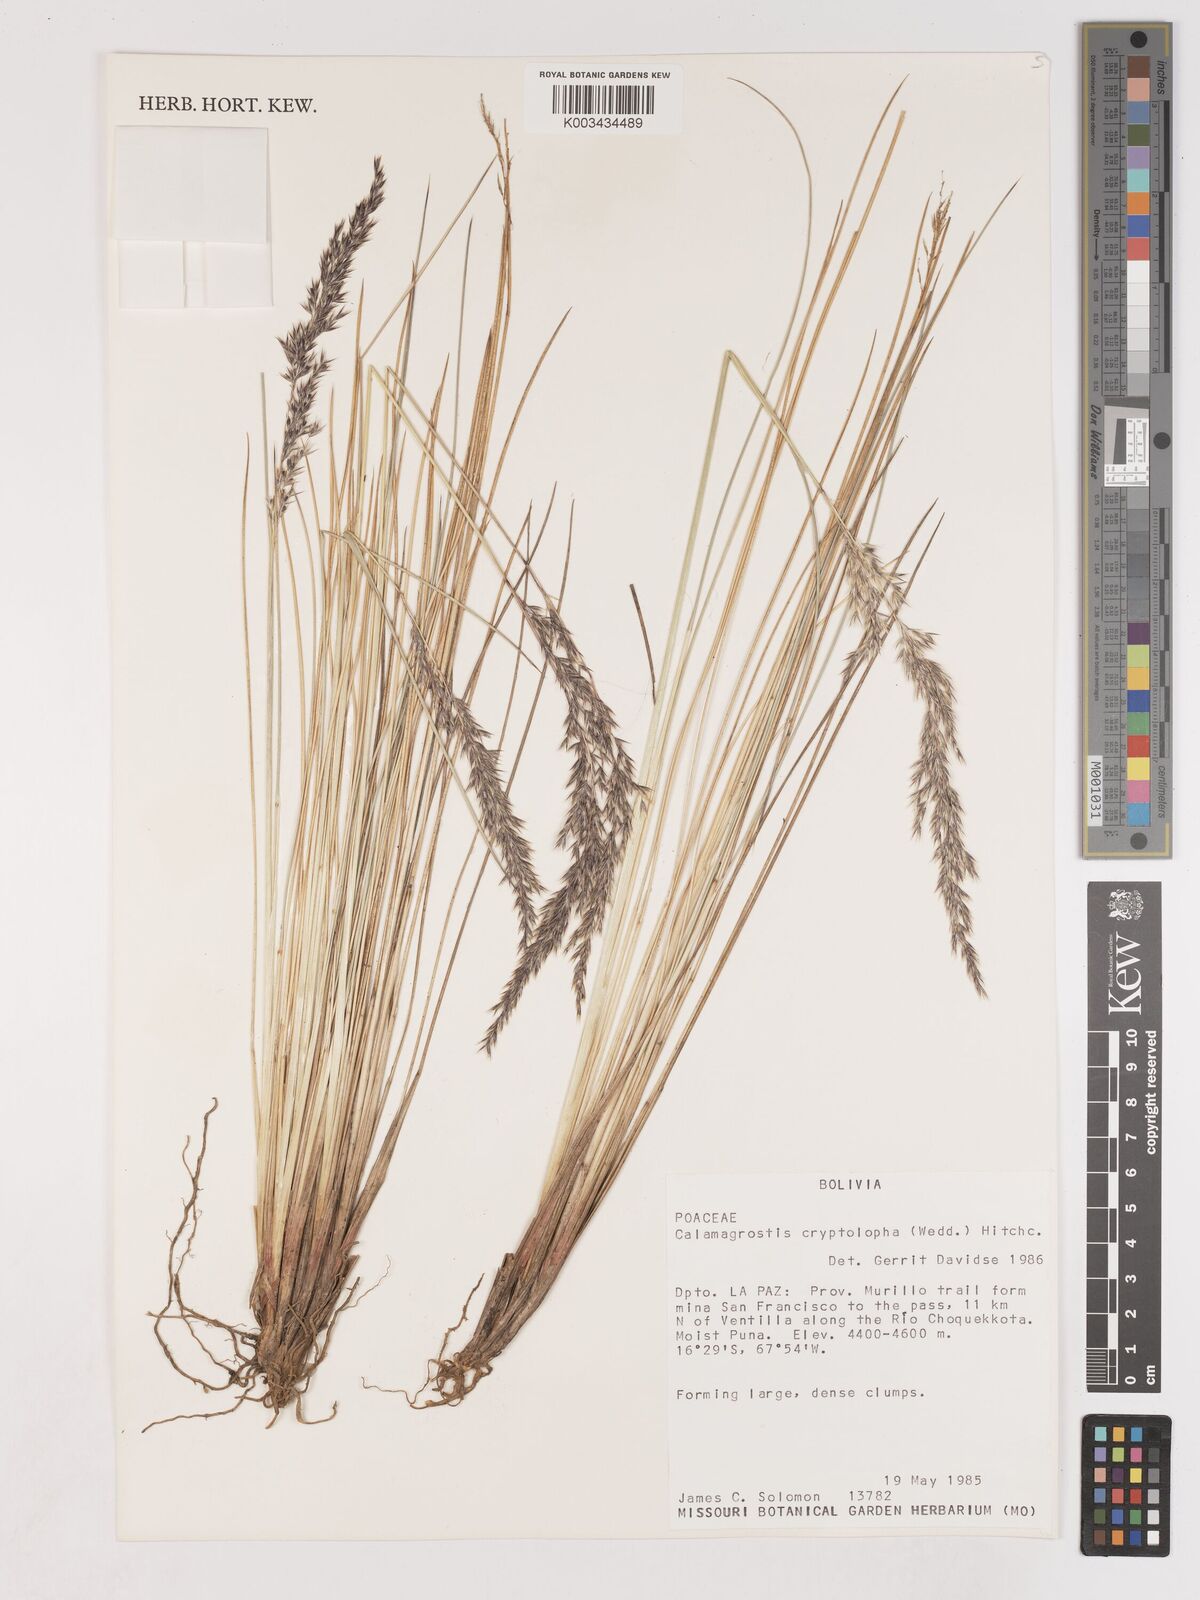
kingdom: Plantae
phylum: Tracheophyta
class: Liliopsida
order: Poales
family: Poaceae
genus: Cinnagrostis
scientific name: Cinnagrostis rigida
